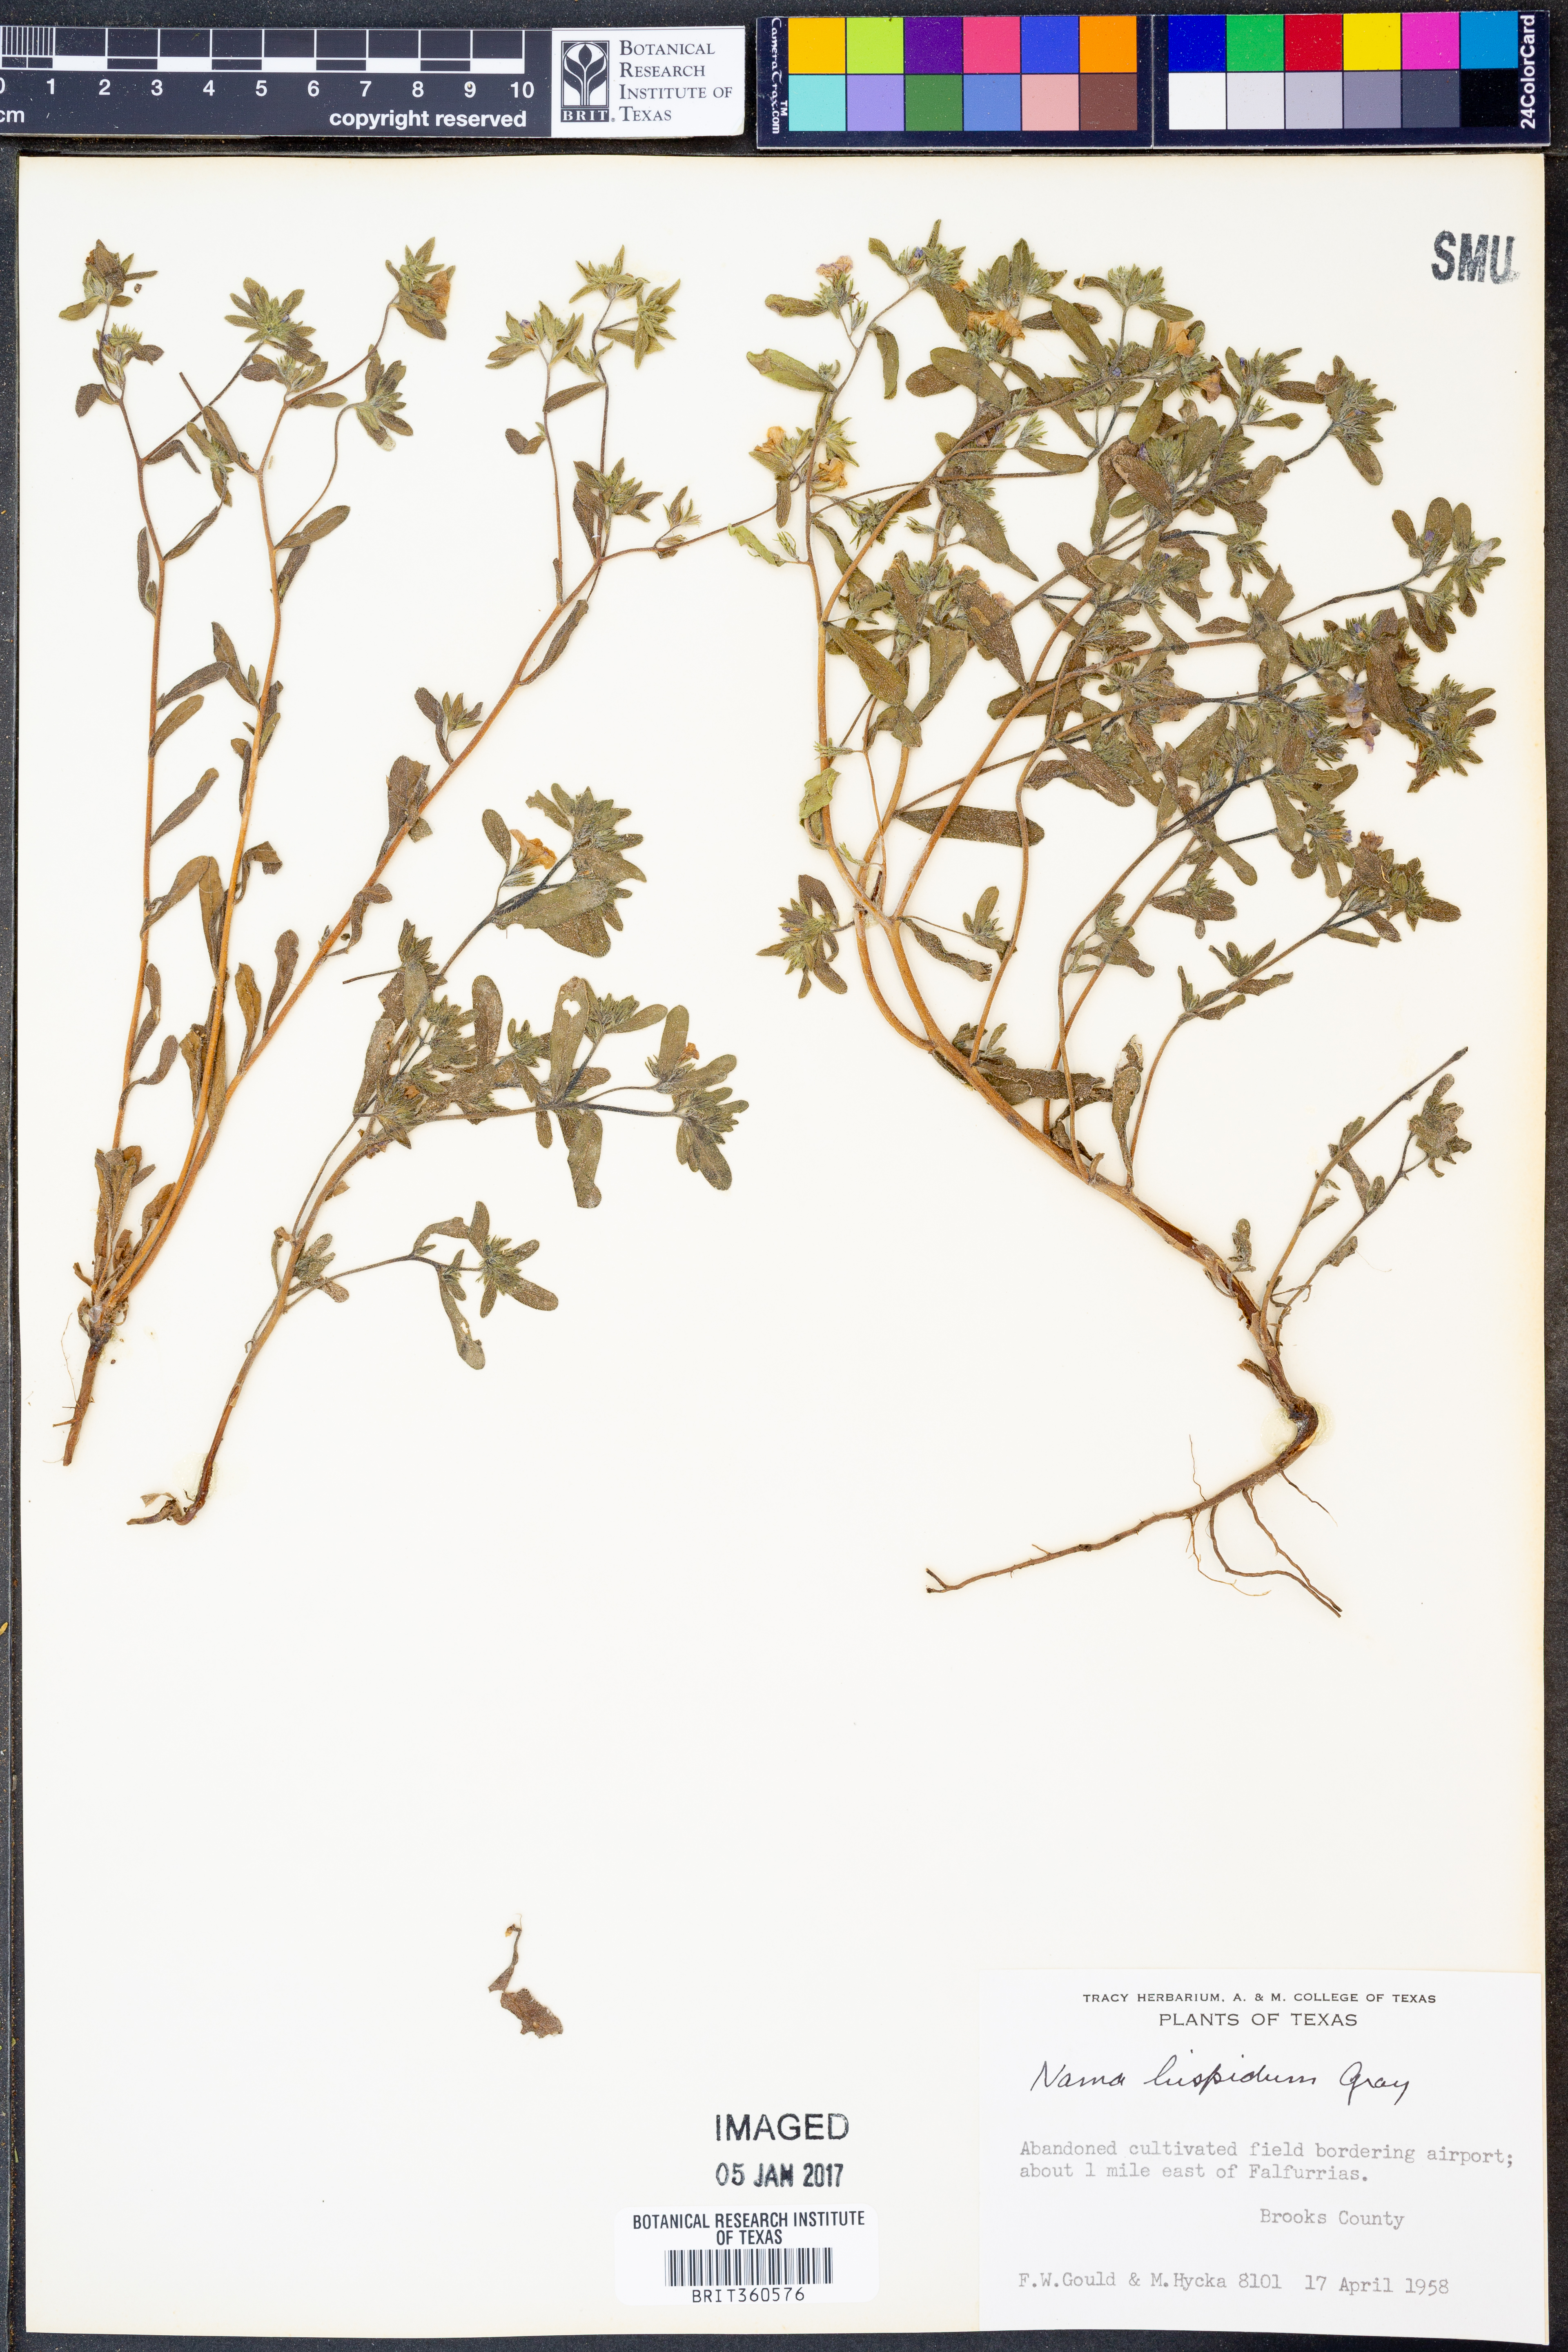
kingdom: Plantae
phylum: Tracheophyta
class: Magnoliopsida
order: Boraginales
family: Namaceae
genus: Nama
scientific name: Nama hispida
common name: Bristly nama
